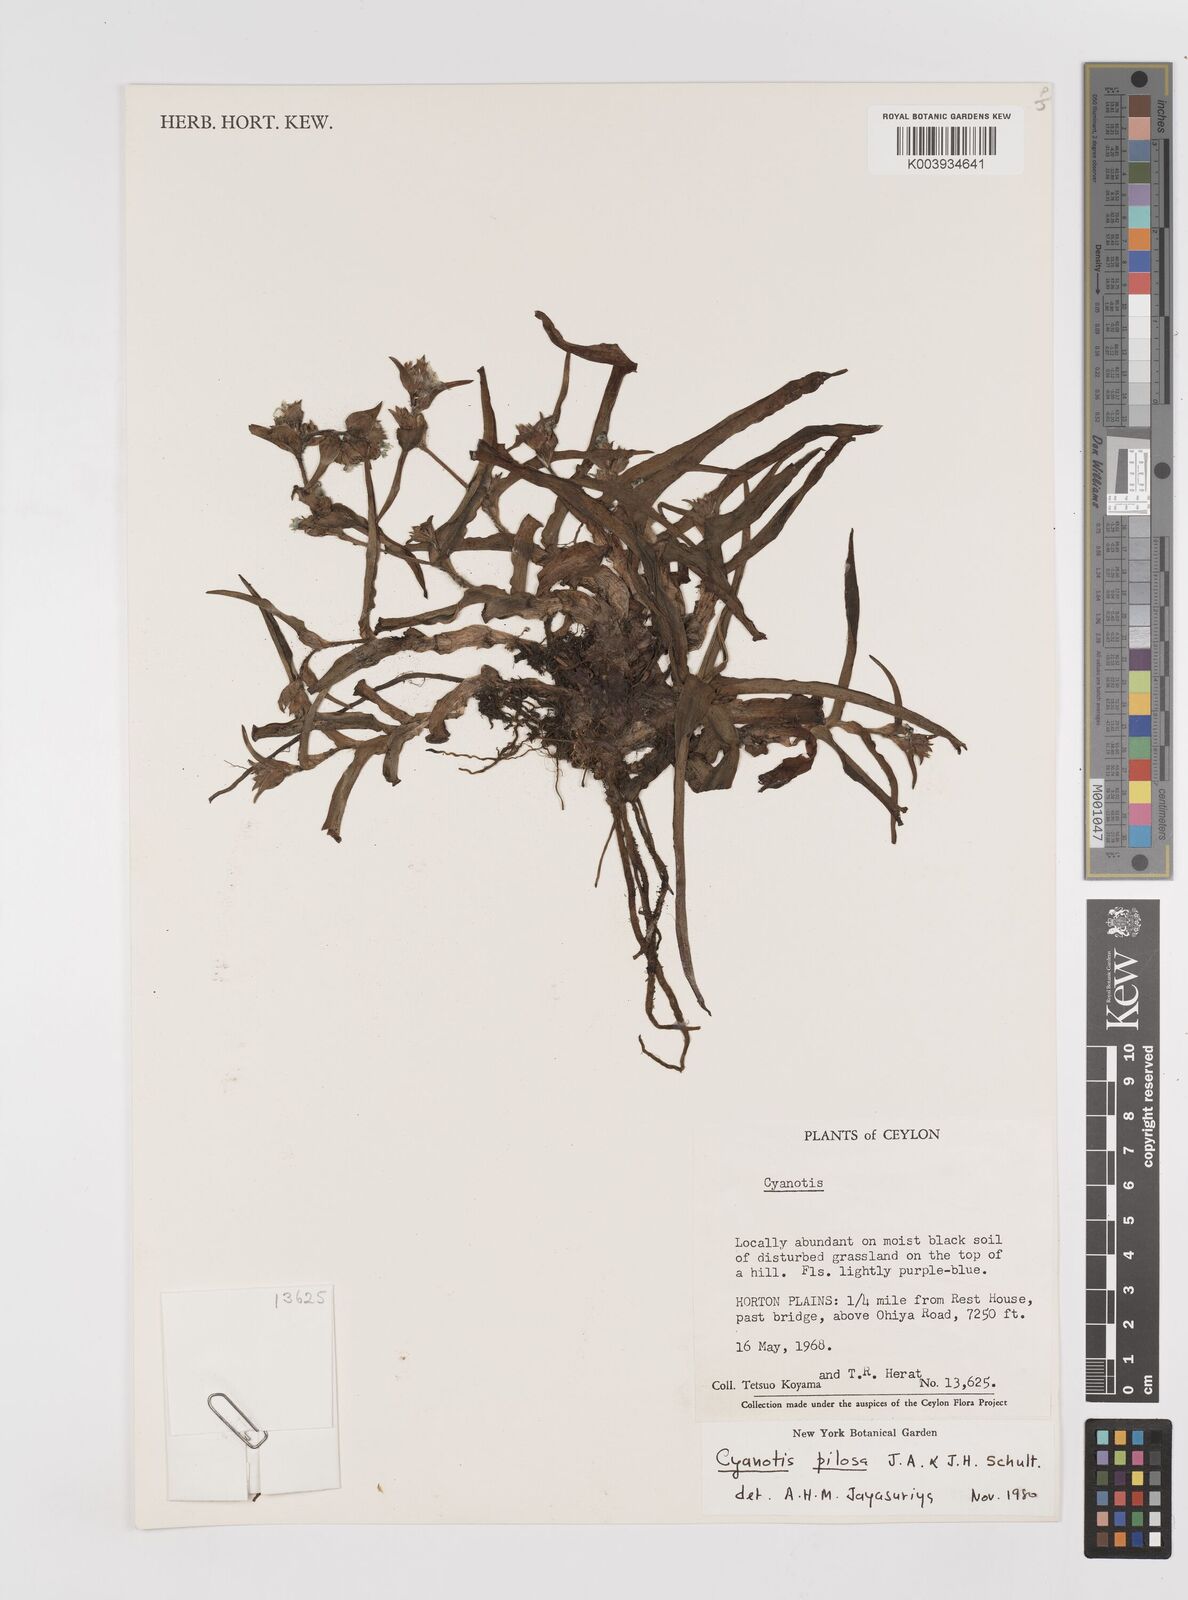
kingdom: Plantae
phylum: Tracheophyta
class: Liliopsida
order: Commelinales
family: Commelinaceae
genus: Cyanotis
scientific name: Cyanotis pilosa
